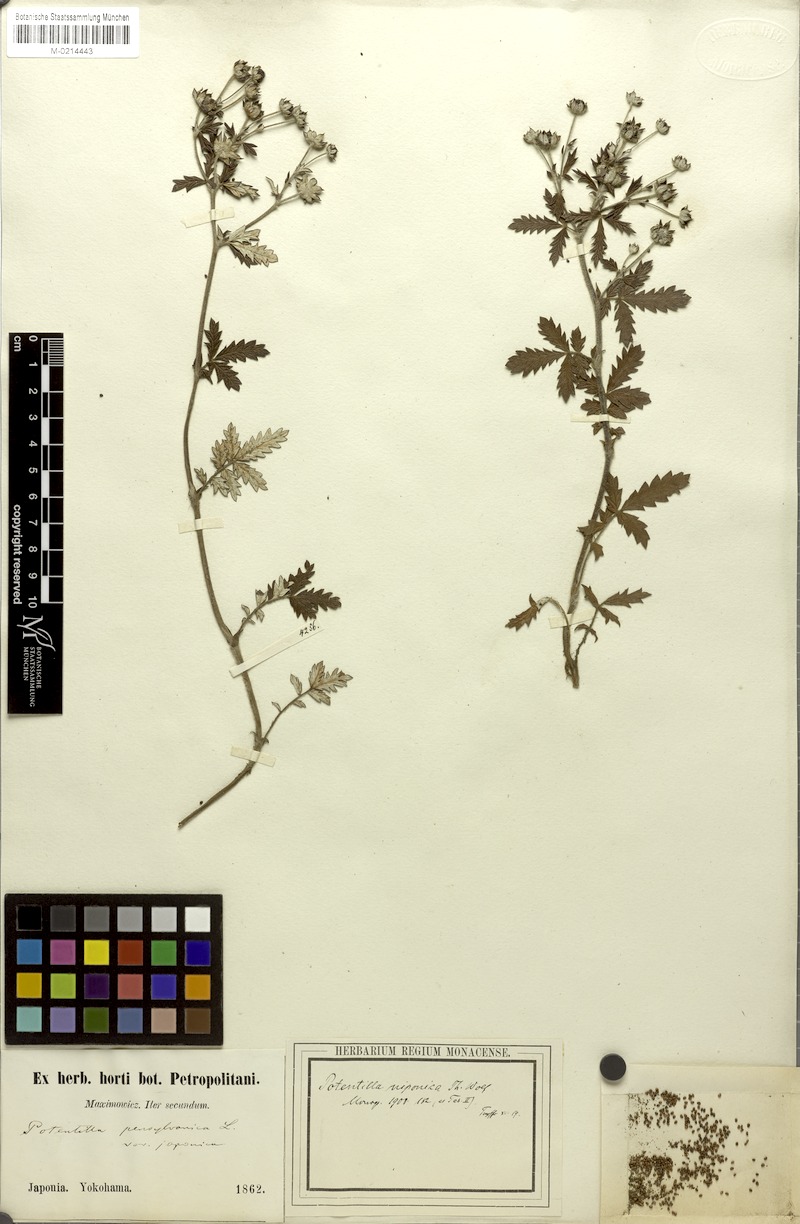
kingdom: Plantae
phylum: Tracheophyta
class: Magnoliopsida
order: Rosales
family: Rosaceae
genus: Potentilla
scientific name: Potentilla chinensis
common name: Chinese cinquefoil
